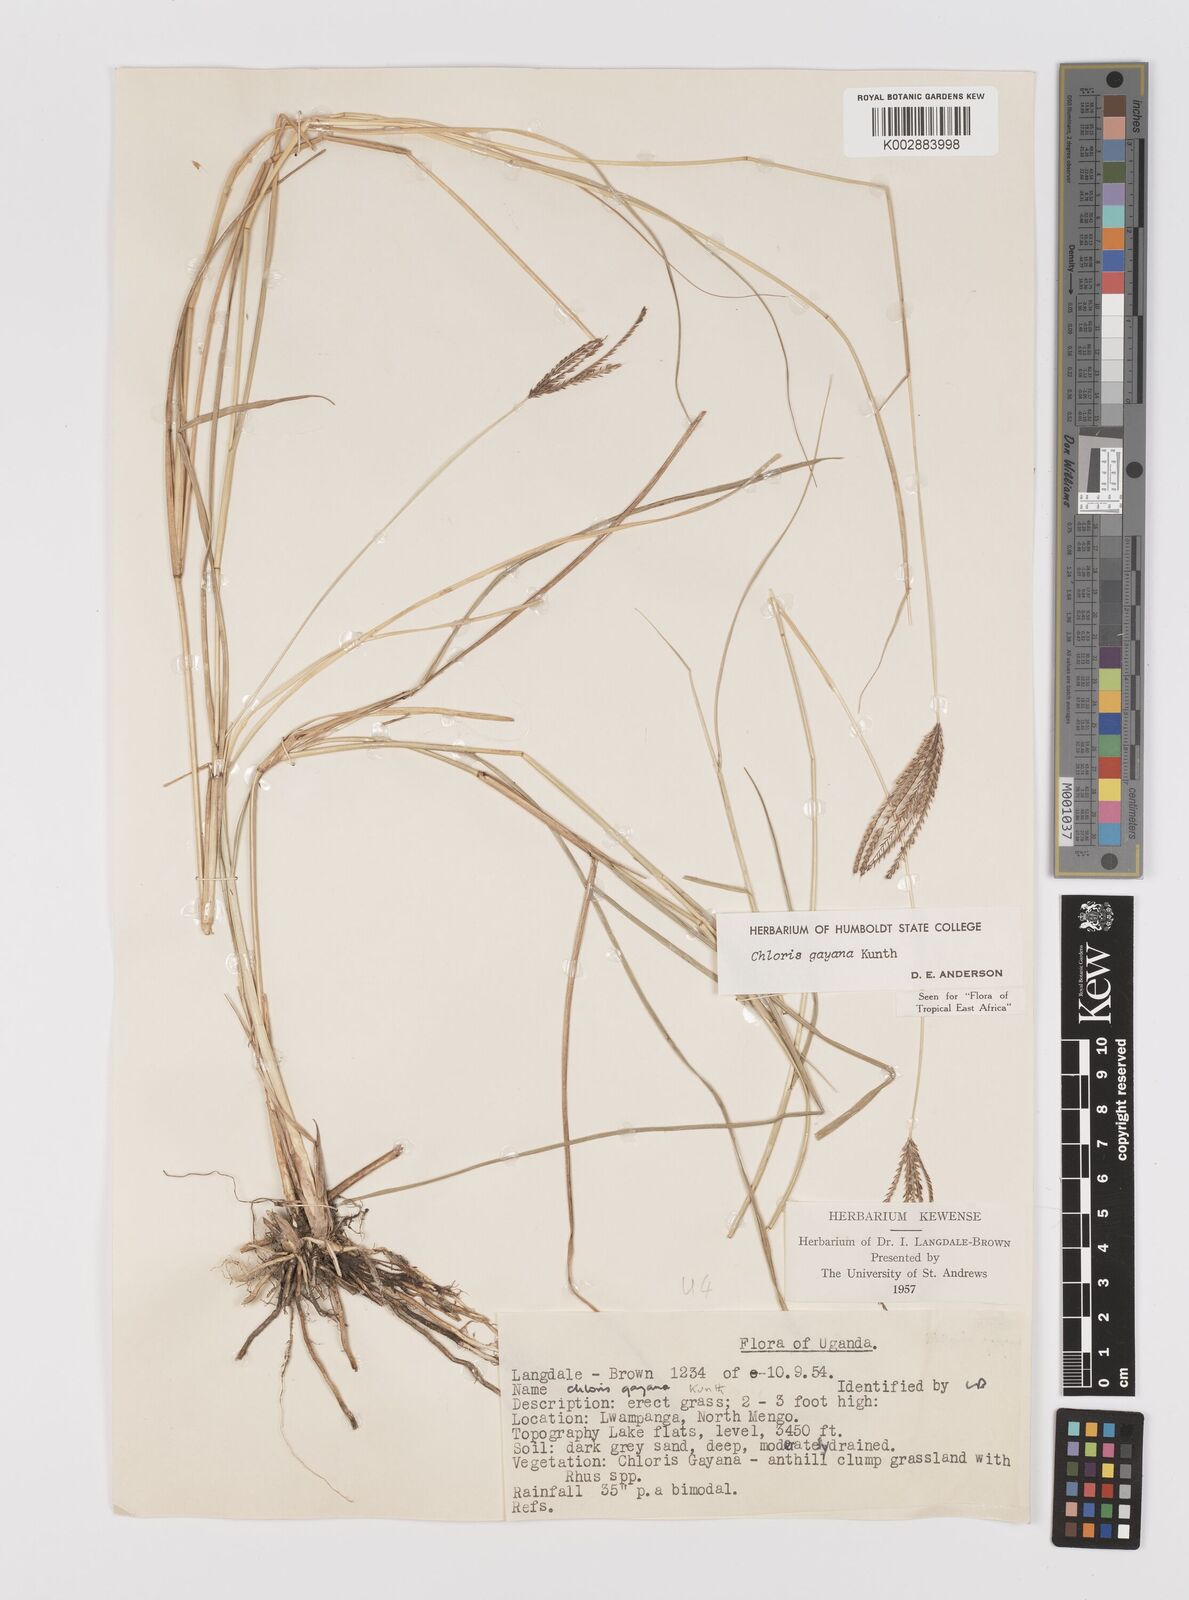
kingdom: Plantae
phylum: Tracheophyta
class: Liliopsida
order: Poales
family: Poaceae
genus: Chloris
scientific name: Chloris gayana
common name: Rhodes grass
